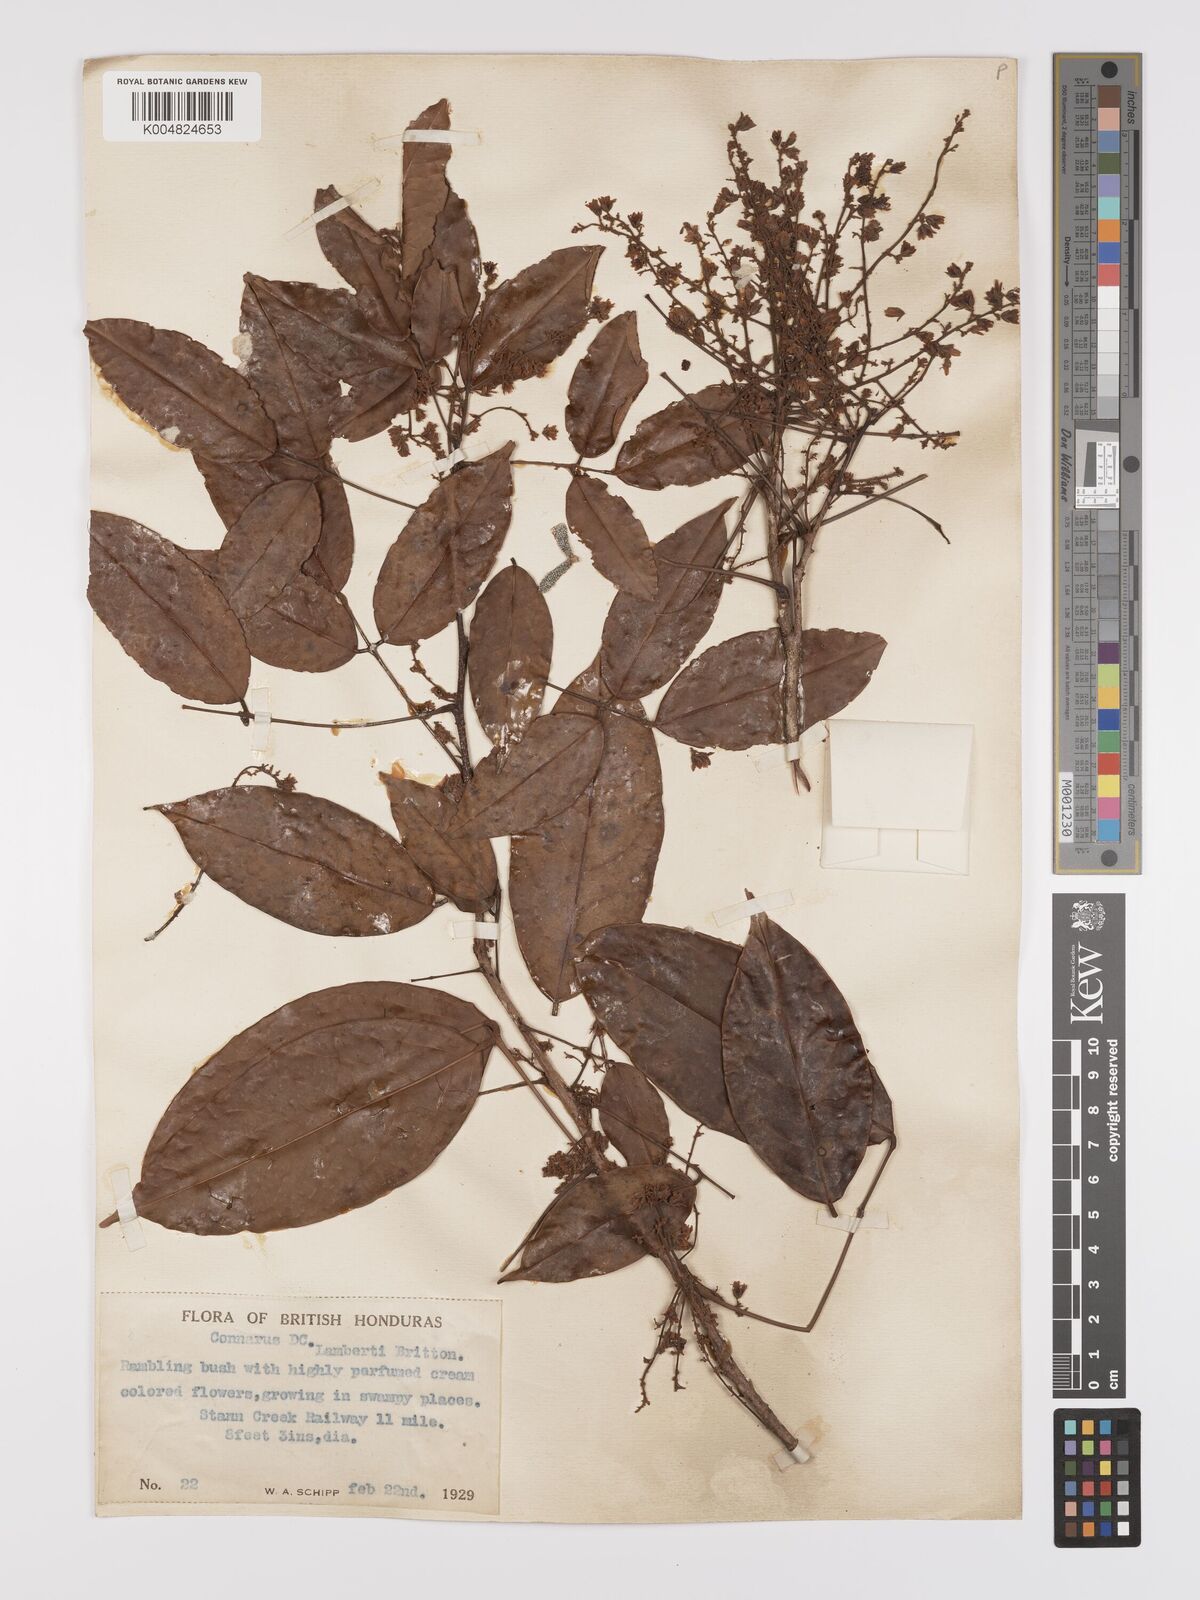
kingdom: Plantae
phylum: Tracheophyta
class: Magnoliopsida
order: Oxalidales
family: Connaraceae
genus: Connarus
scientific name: Connarus lambertii
